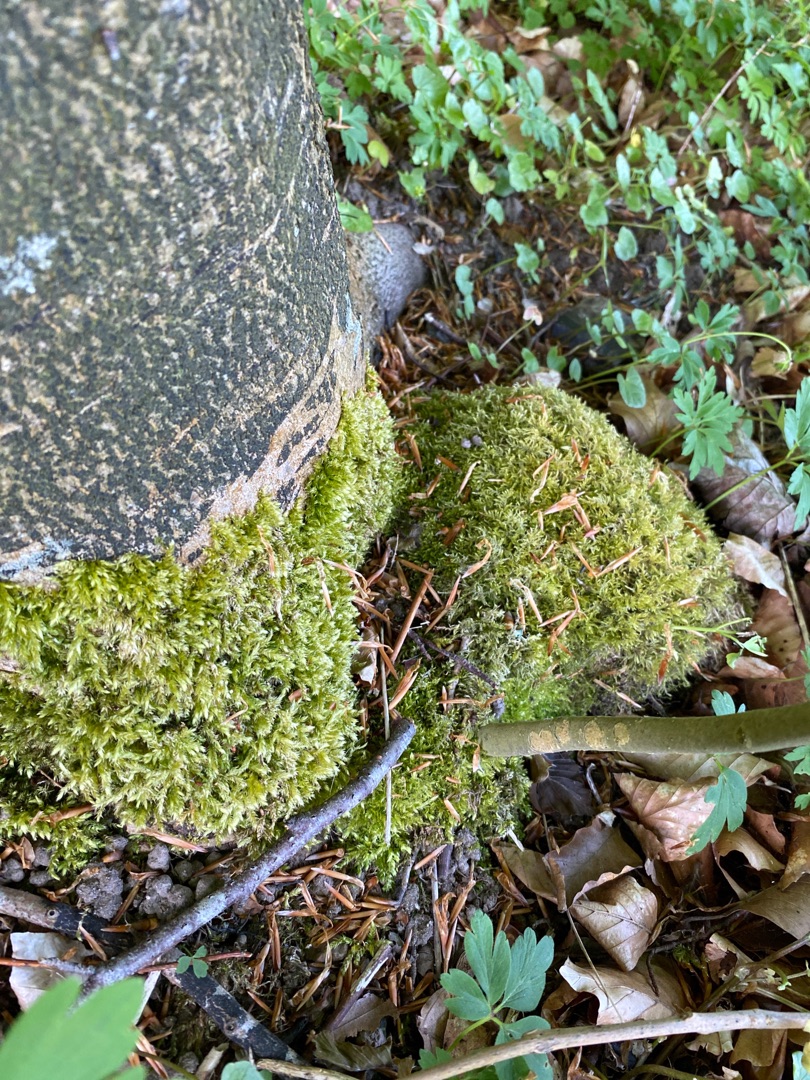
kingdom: Plantae
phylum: Bryophyta
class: Bryopsida
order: Hypnales
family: Brachytheciaceae
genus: Brachythecium
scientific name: Brachythecium rutabulum
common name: Almindelig kortkapsel
